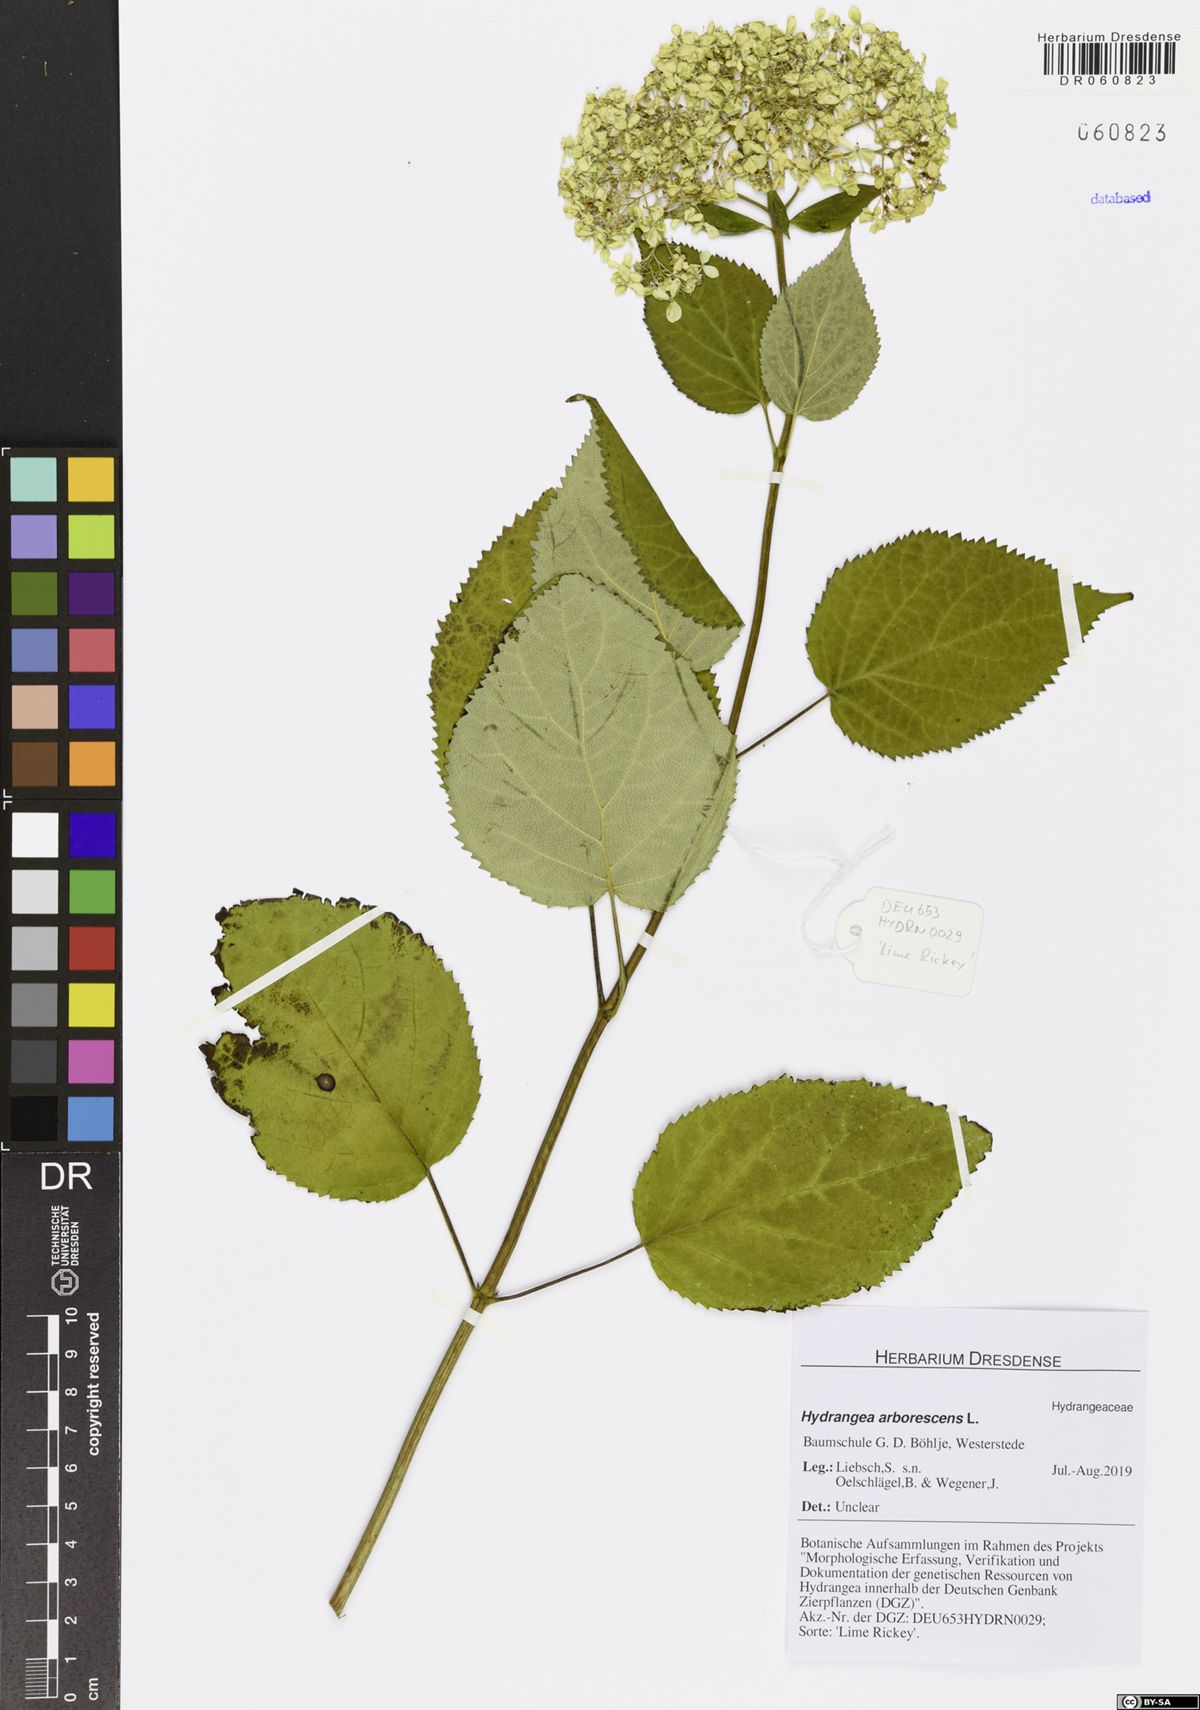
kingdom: Plantae
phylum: Tracheophyta
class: Magnoliopsida
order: Cornales
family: Hydrangeaceae
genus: Hydrangea
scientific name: Hydrangea arborescens
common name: Sevenbark
